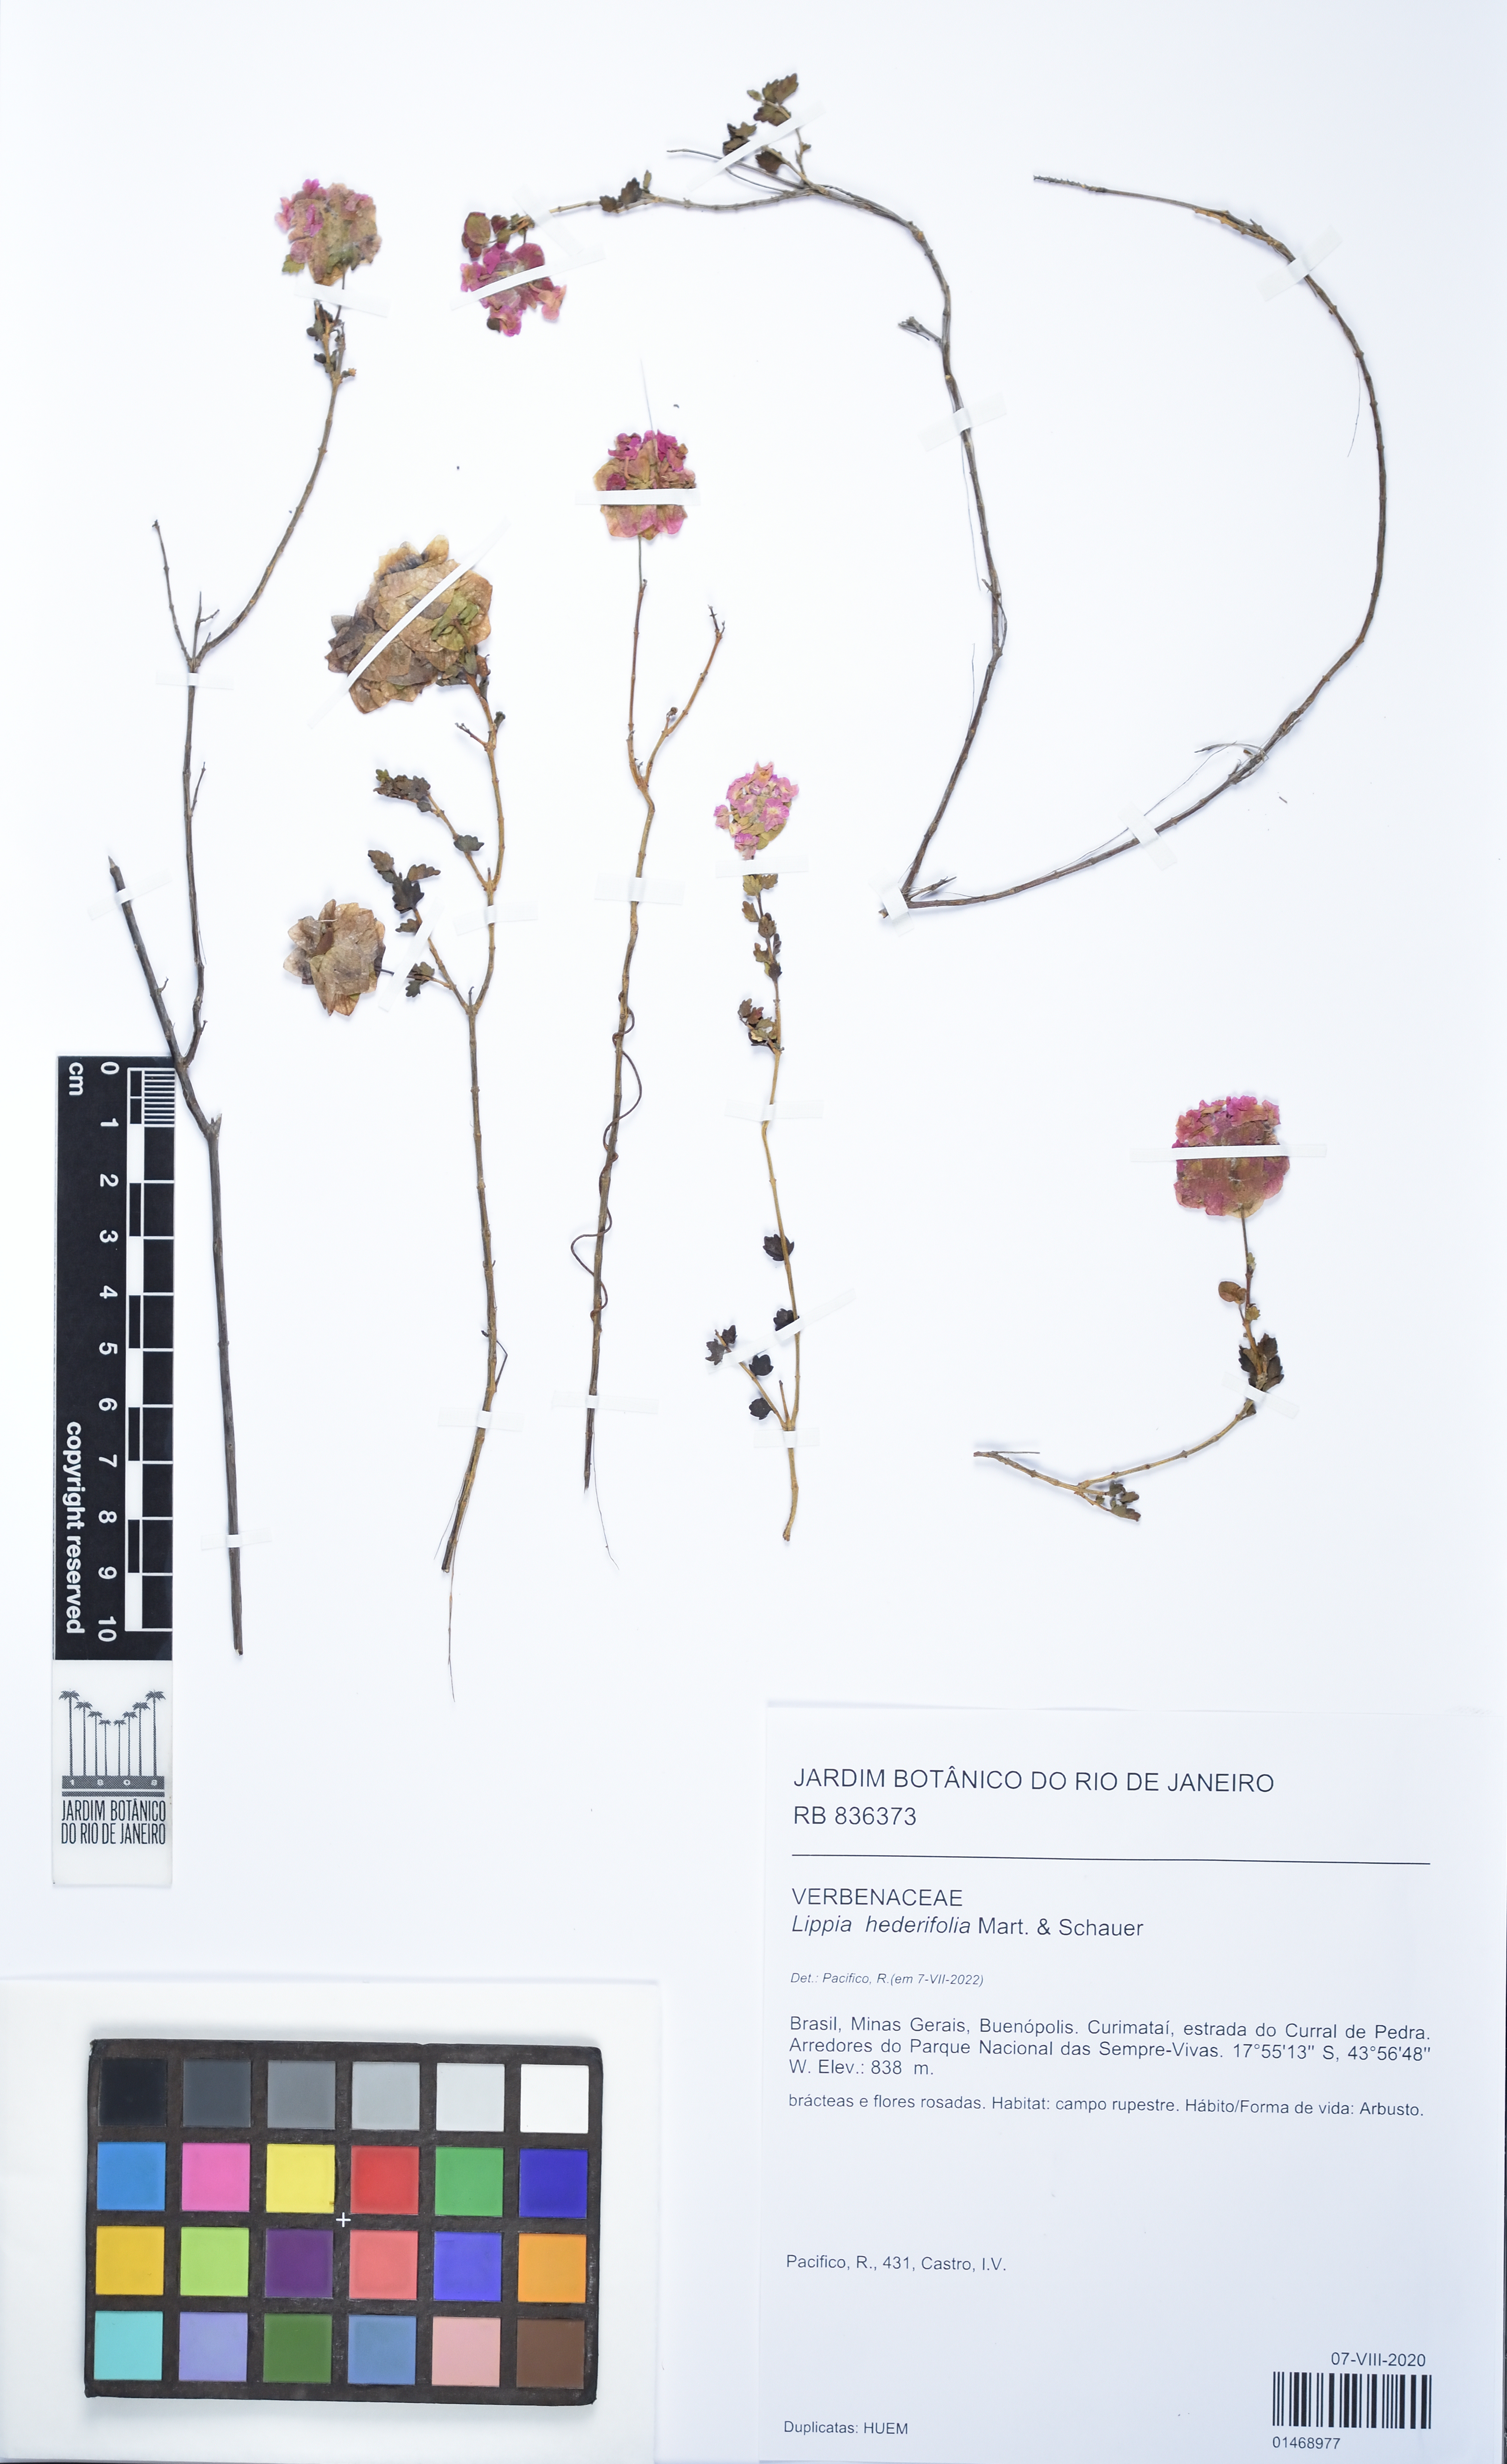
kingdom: Plantae
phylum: Tracheophyta
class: Magnoliopsida
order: Lamiales
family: Verbenaceae
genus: Lippia
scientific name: Lippia hederifolia
